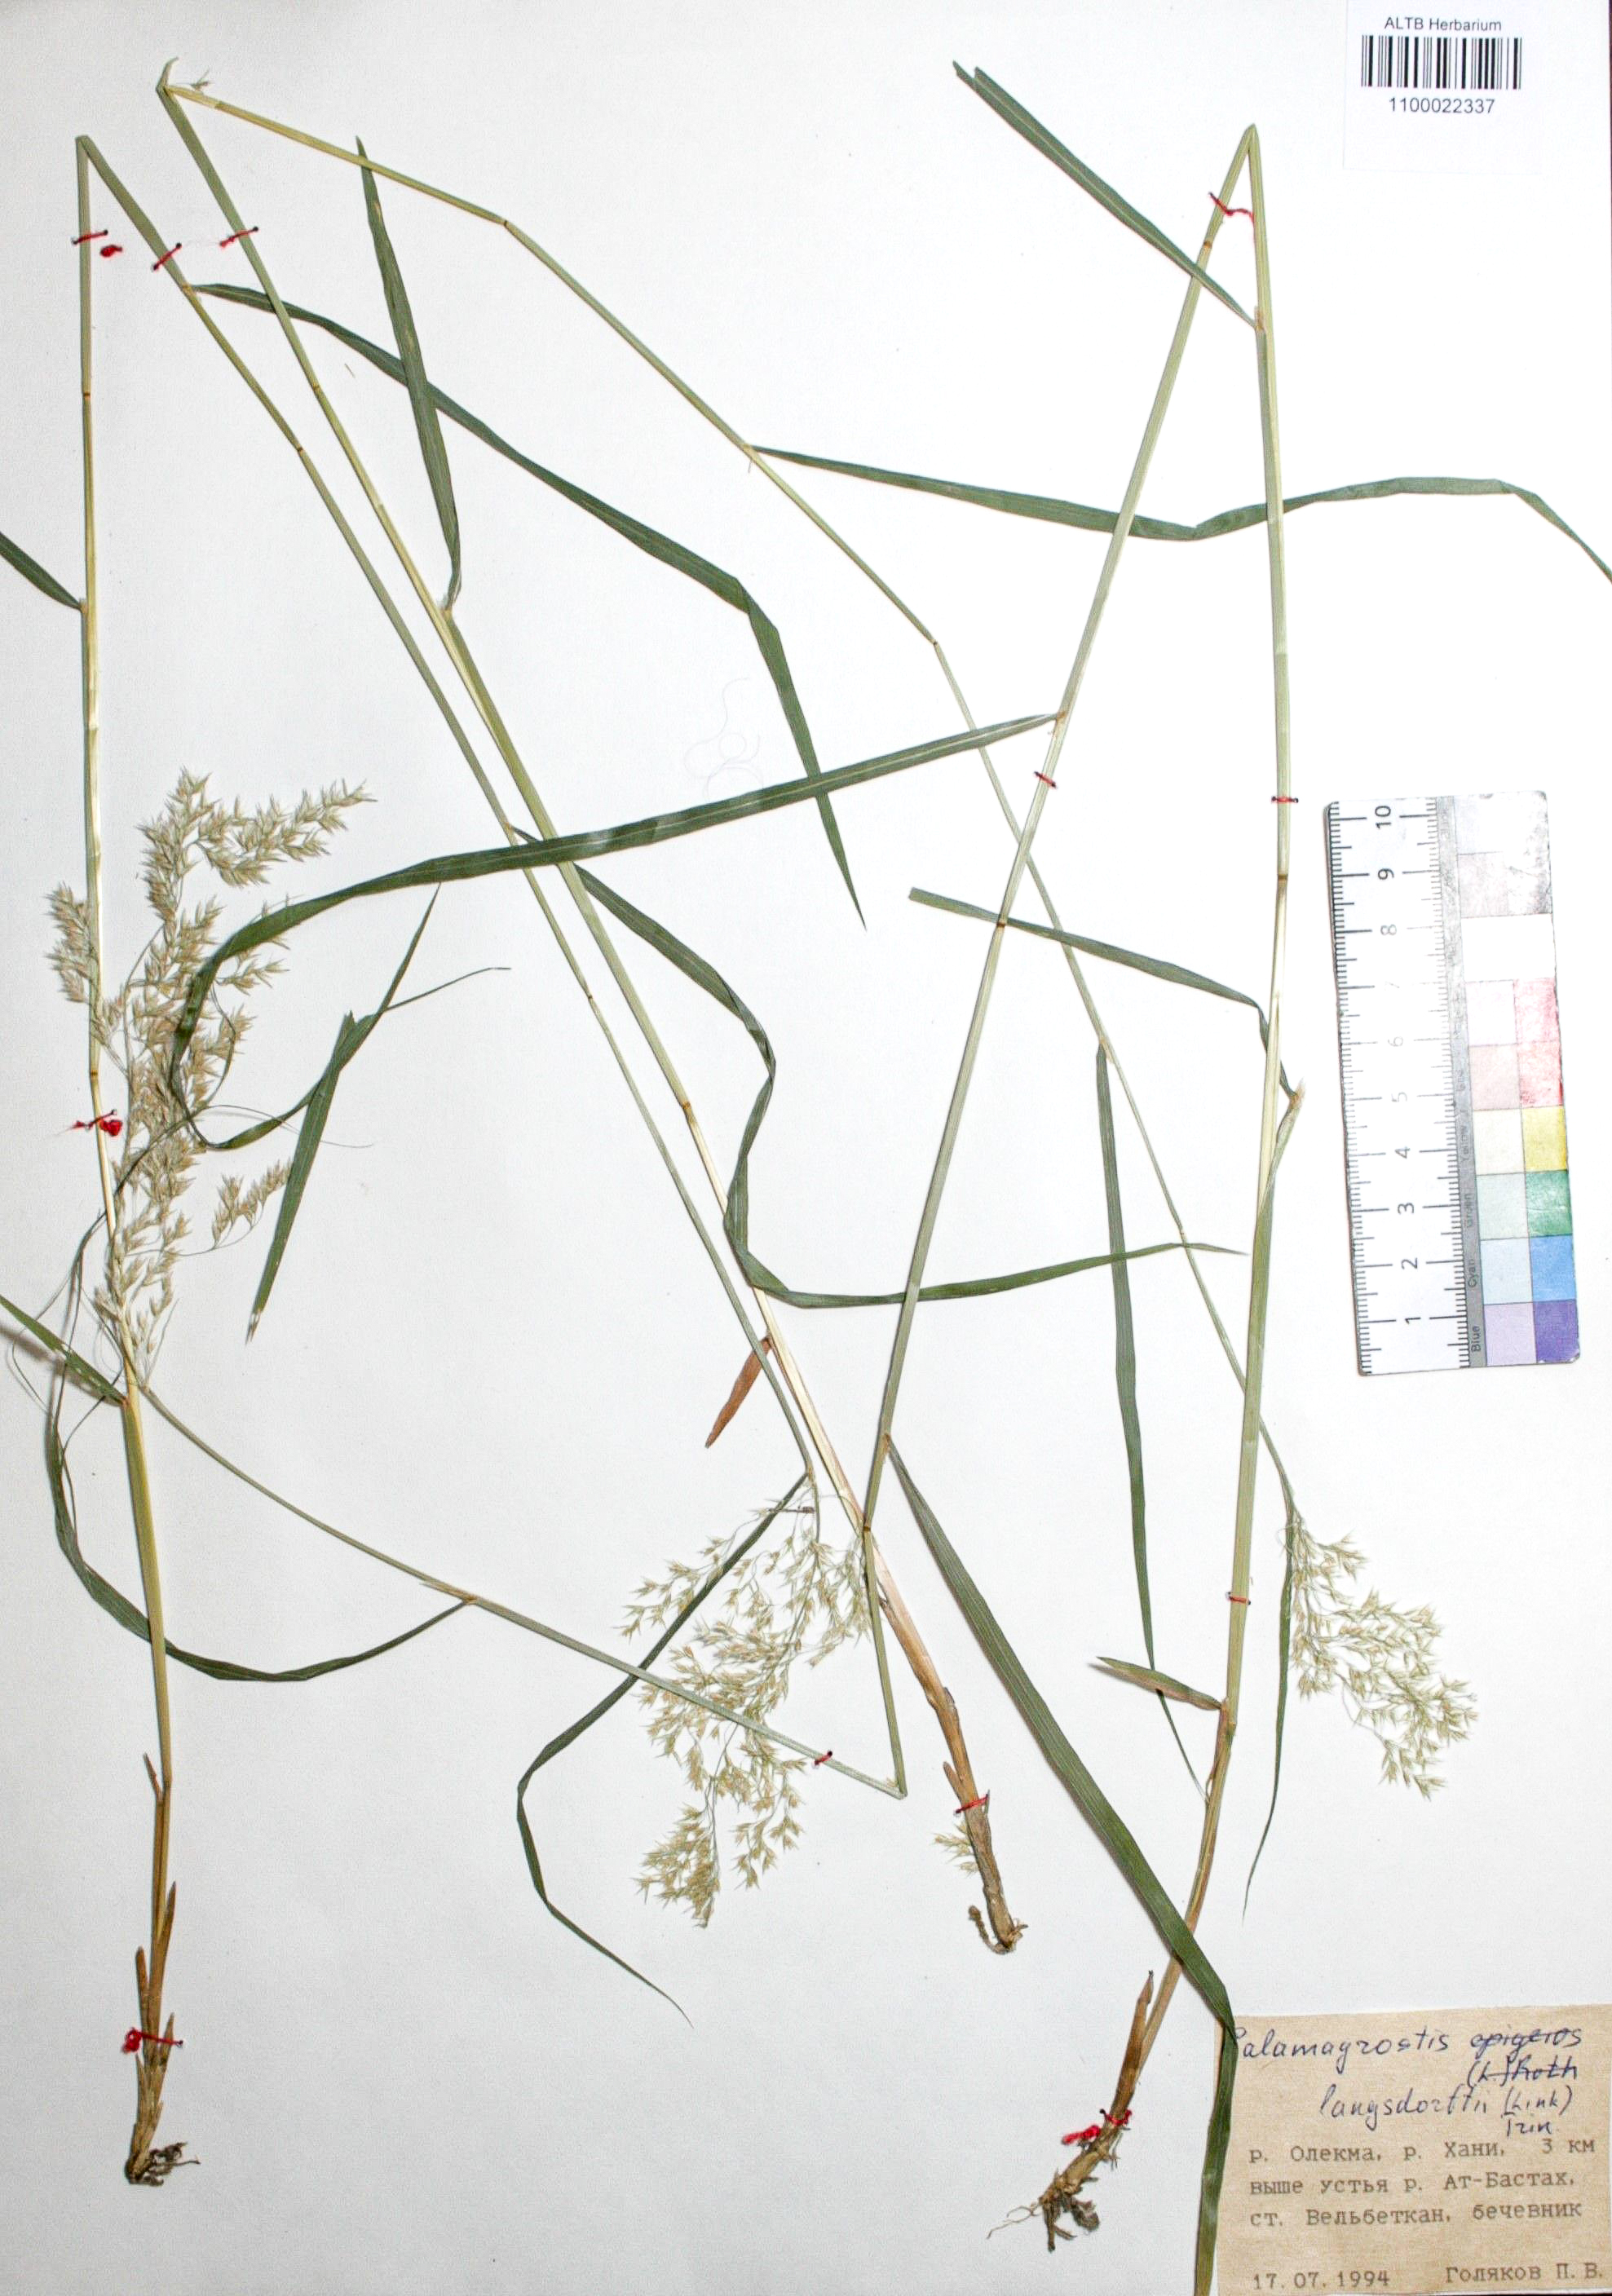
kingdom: Plantae
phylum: Tracheophyta
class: Liliopsida
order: Poales
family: Poaceae
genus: Calamagrostis
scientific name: Calamagrostis purpurea
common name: Scandinavian small-reed
